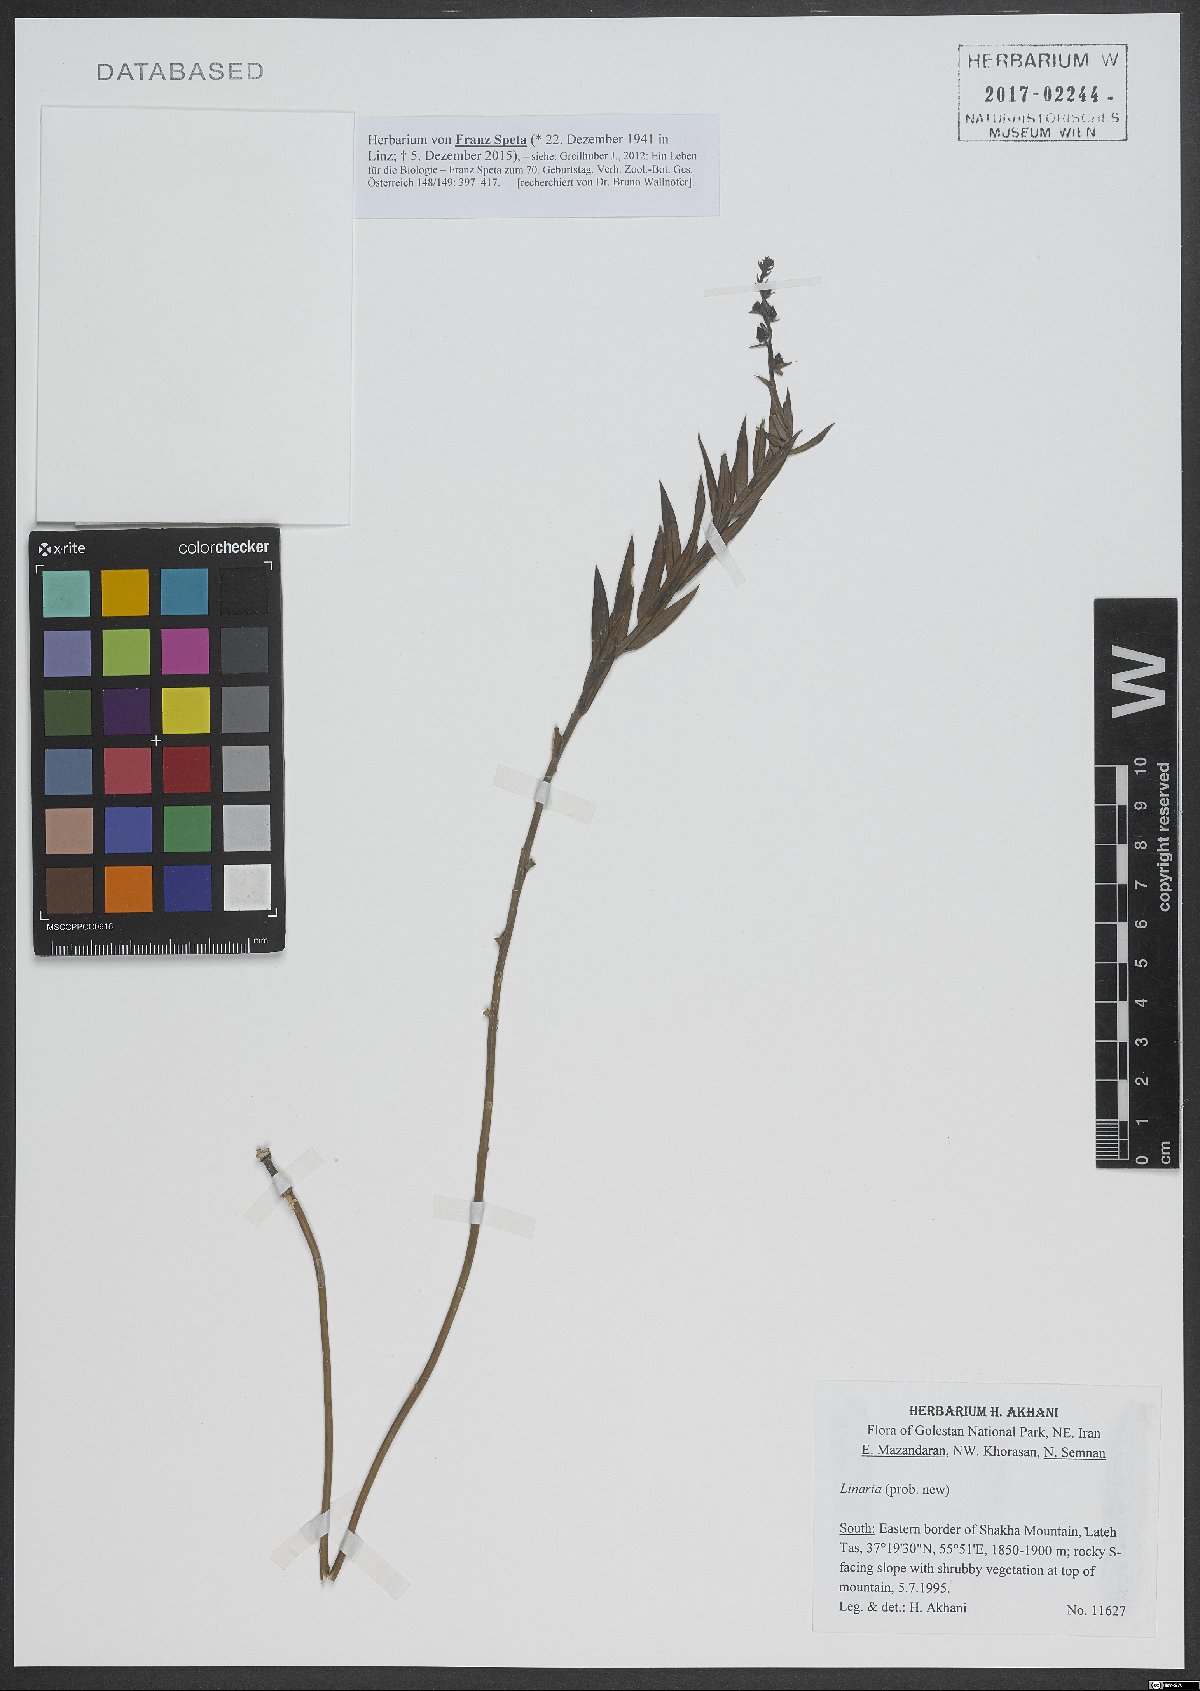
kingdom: Plantae
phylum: Tracheophyta
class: Magnoliopsida
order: Lamiales
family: Plantaginaceae
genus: Linaria
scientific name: Linaria
